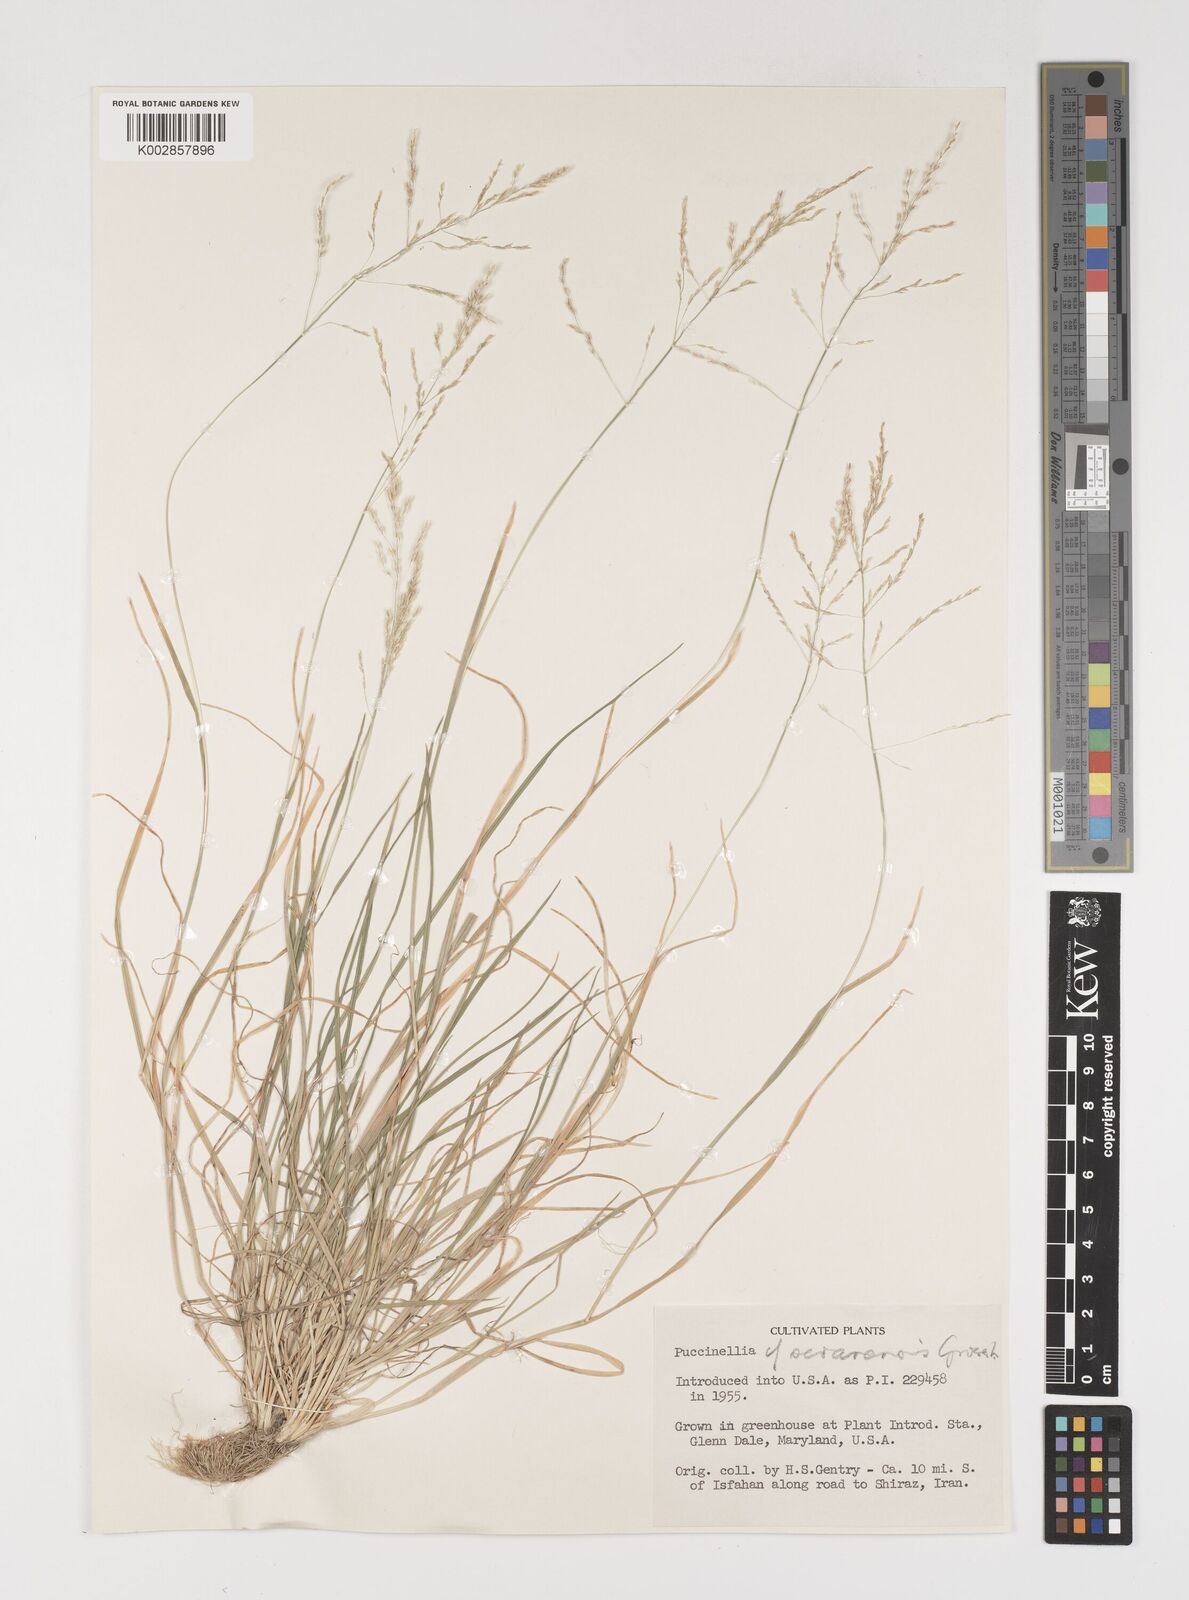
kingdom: Plantae
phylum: Tracheophyta
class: Liliopsida
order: Poales
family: Poaceae
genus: Puccinellia
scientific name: Puccinellia
